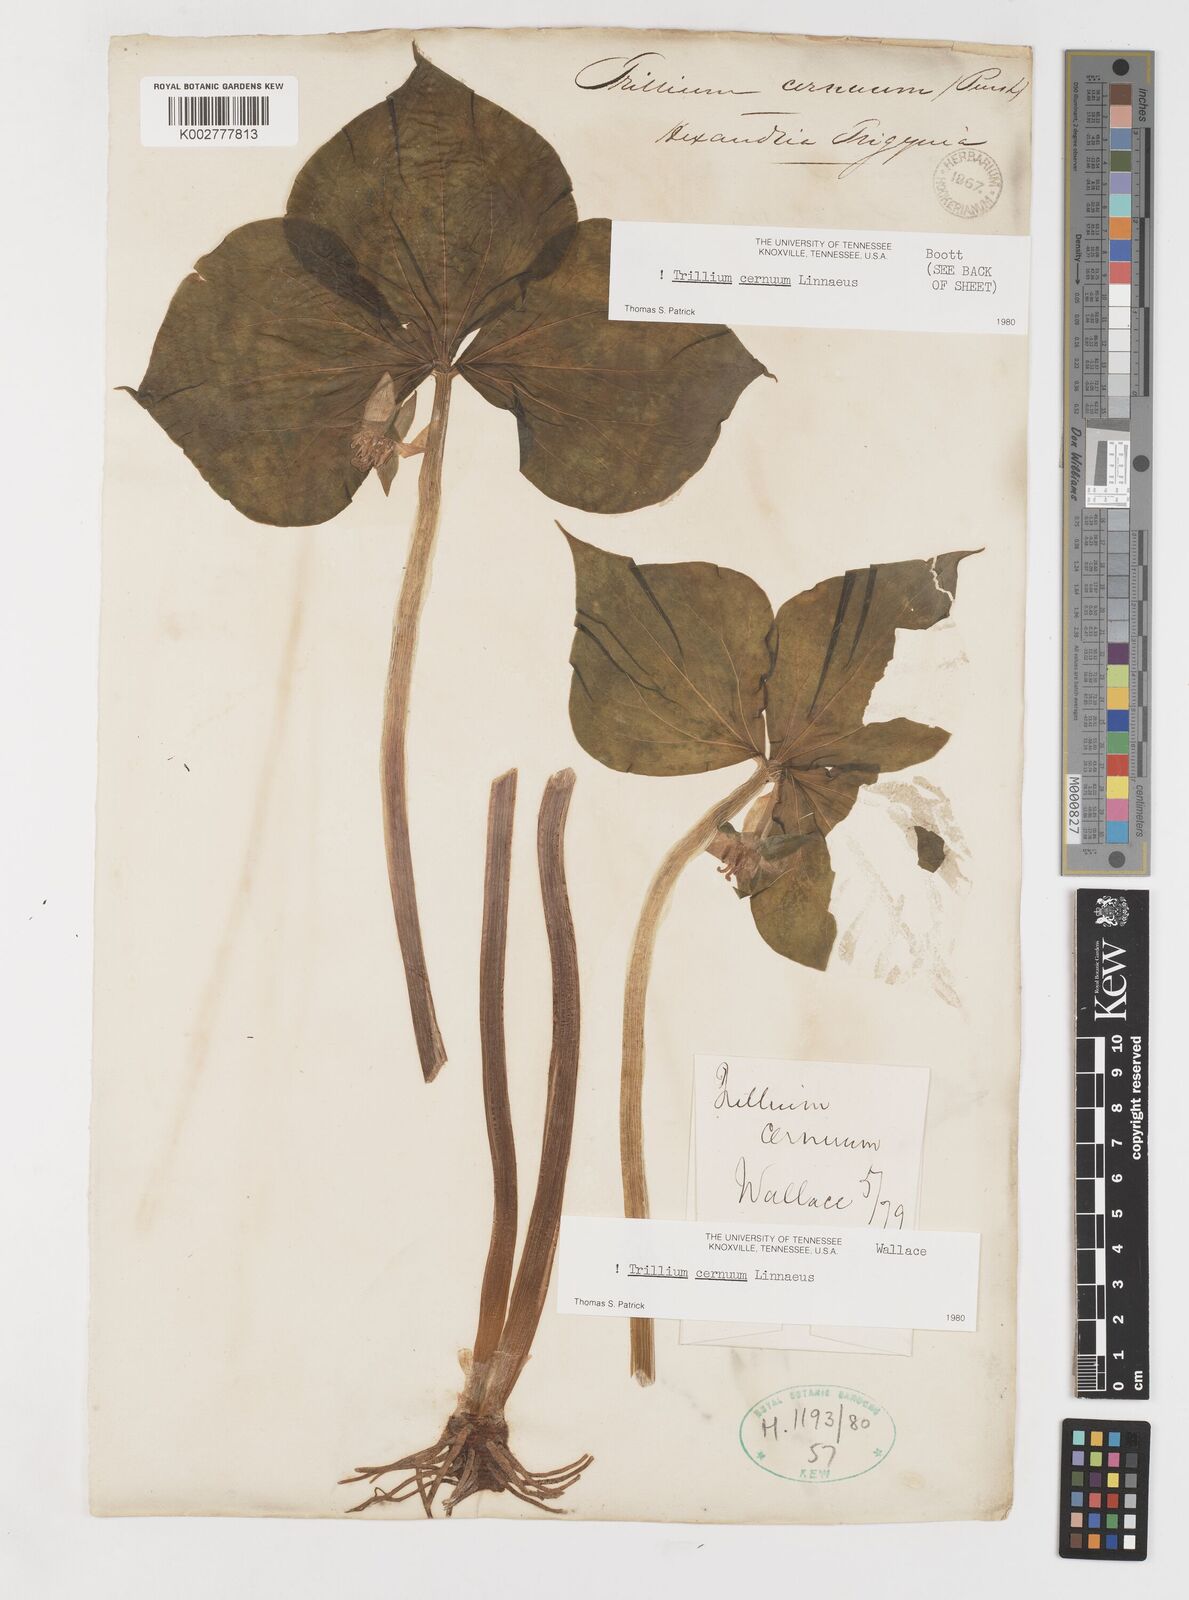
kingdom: Plantae
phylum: Tracheophyta
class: Liliopsida
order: Liliales
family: Melanthiaceae
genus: Trillium
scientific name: Trillium cernuum
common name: Nodding trillium
